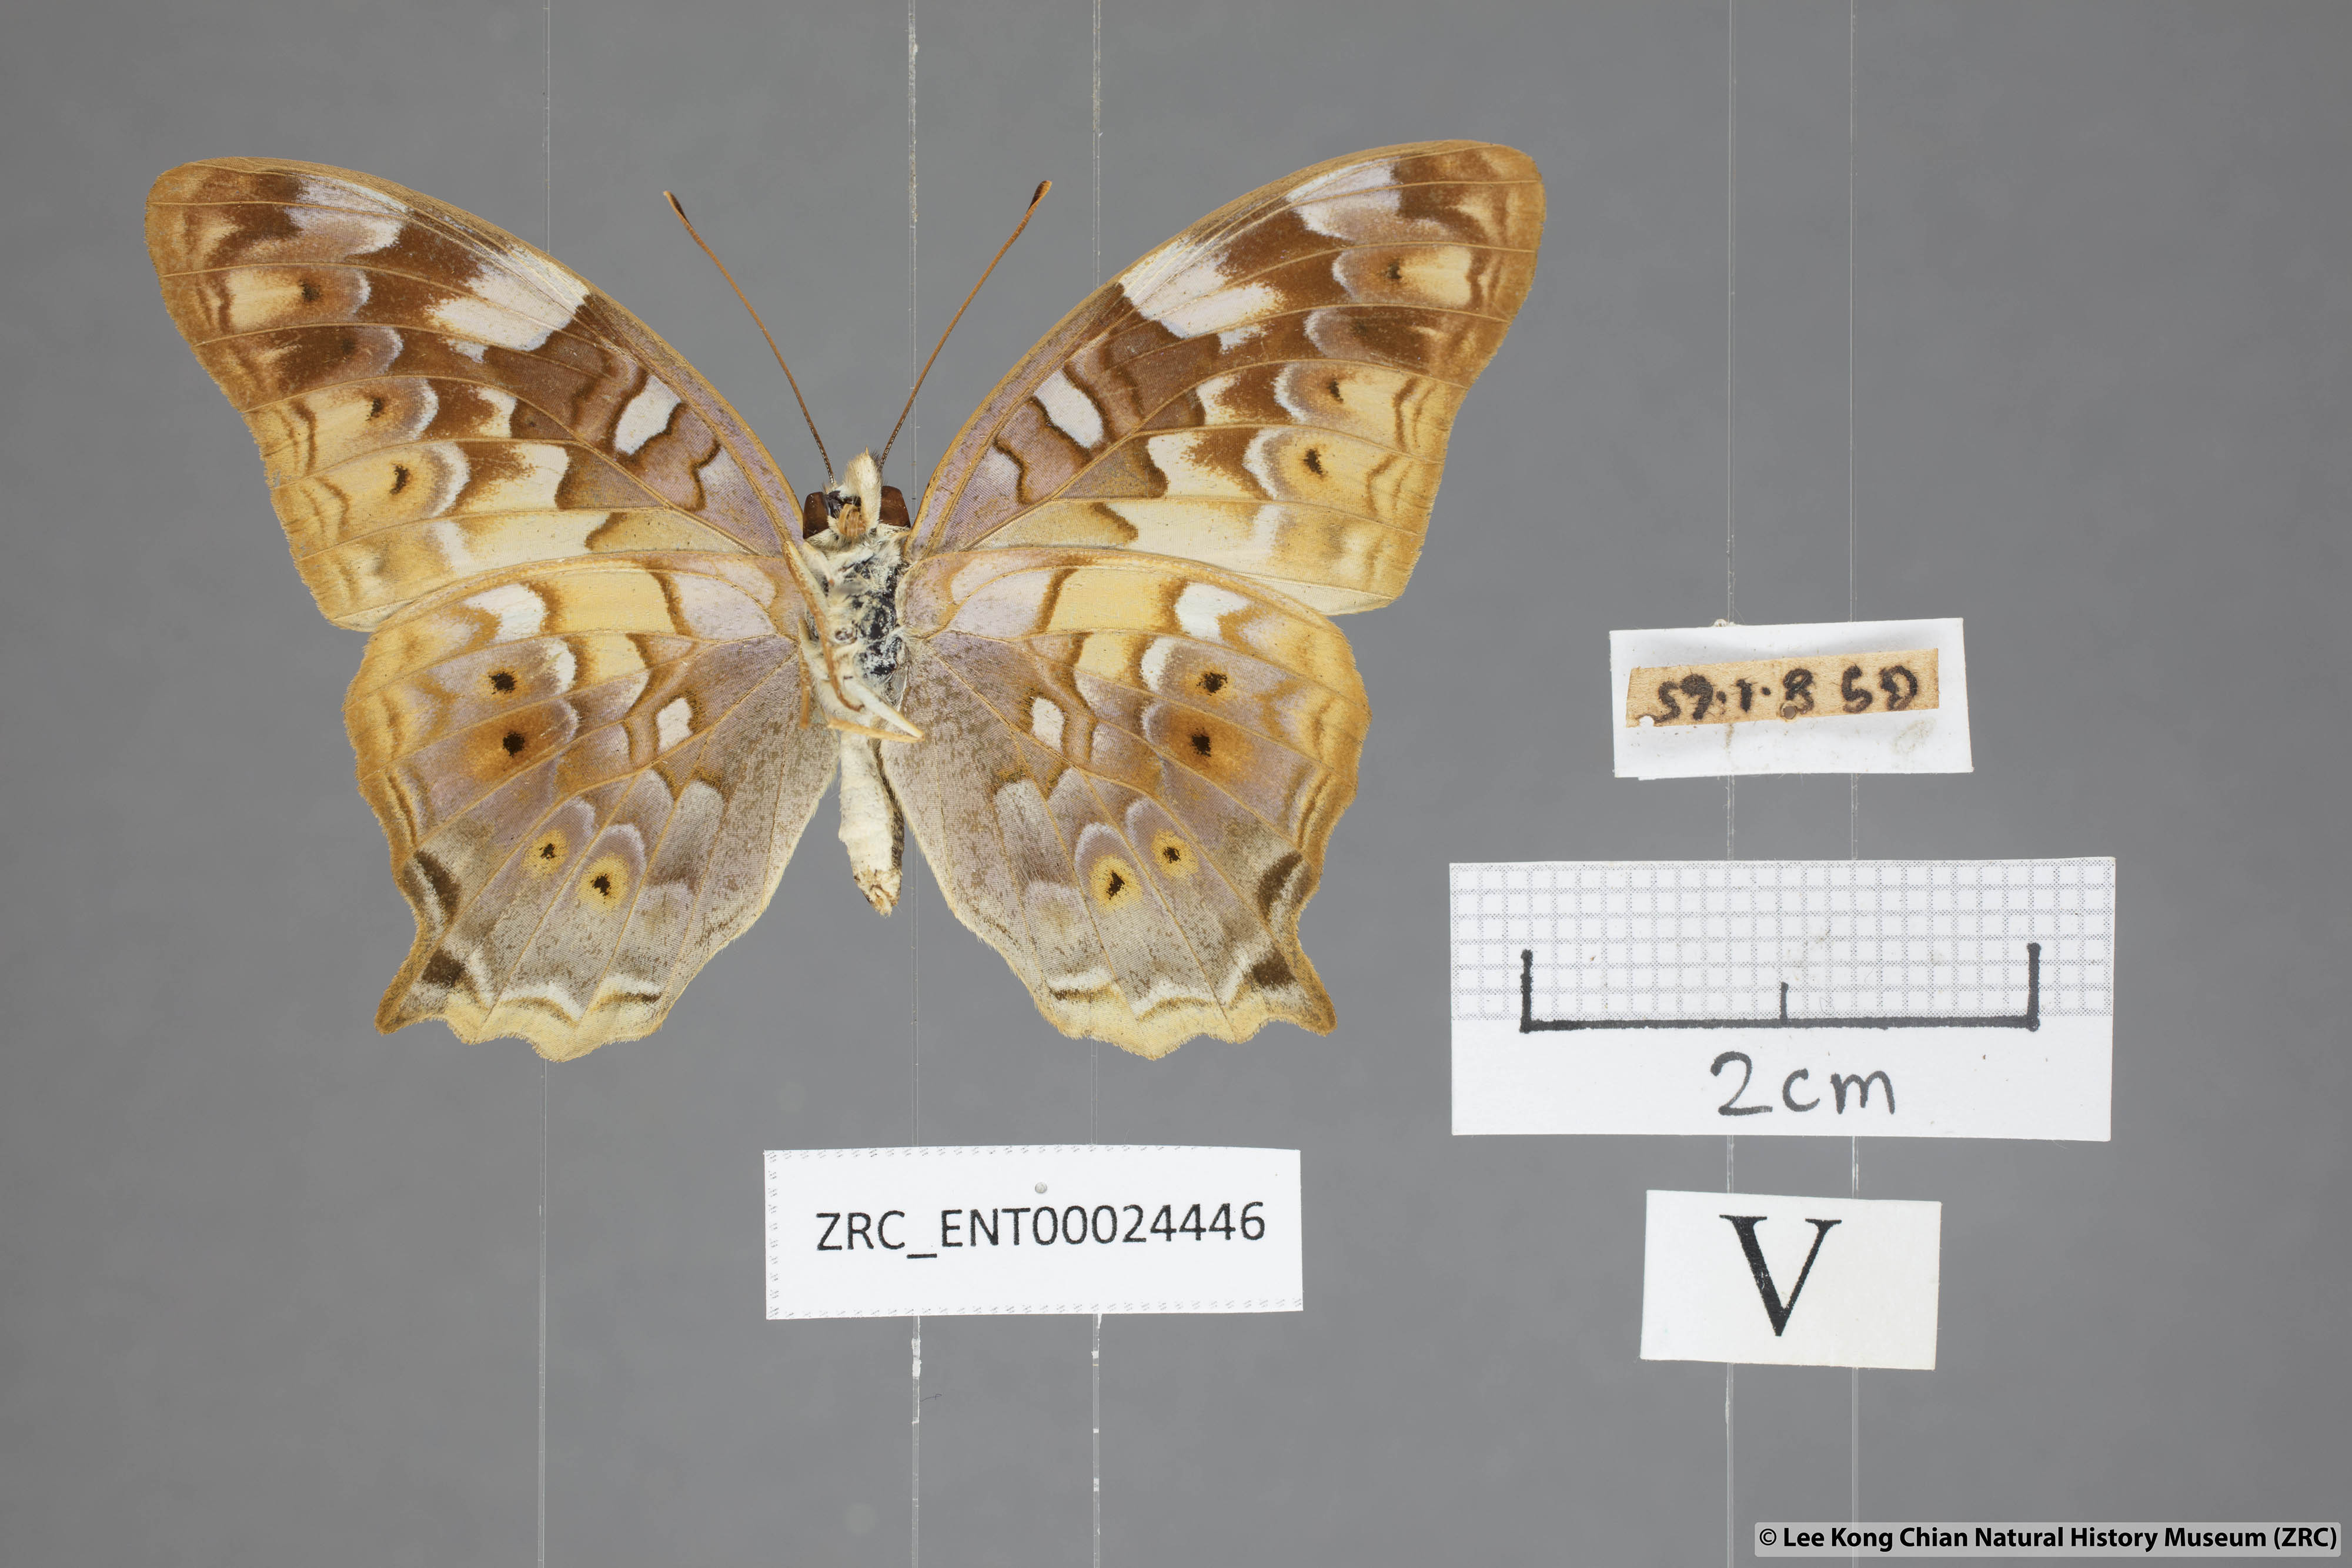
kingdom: Animalia
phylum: Arthropoda
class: Insecta
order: Lepidoptera
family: Nymphalidae
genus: Vagrans
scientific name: Vagrans egista
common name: Tailed rustic
